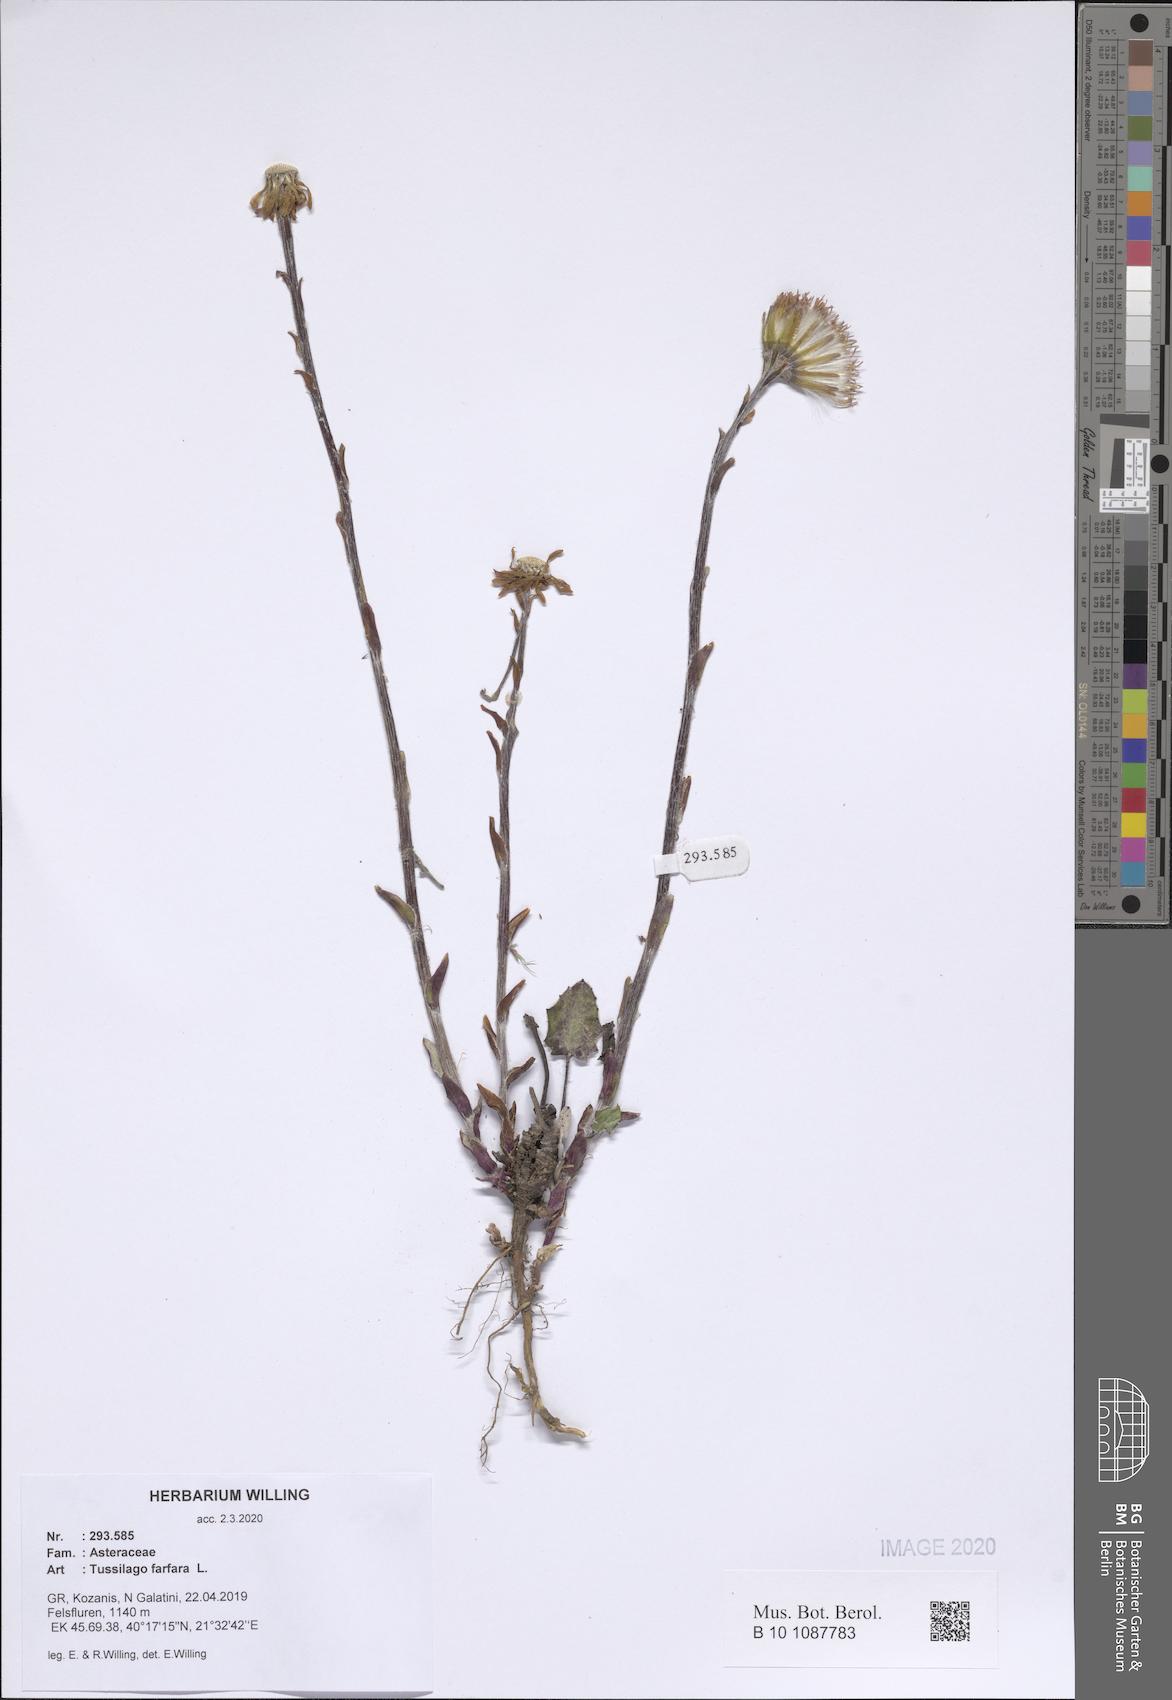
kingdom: Plantae
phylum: Tracheophyta
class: Magnoliopsida
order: Asterales
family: Asteraceae
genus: Tussilago
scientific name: Tussilago farfara
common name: Coltsfoot
